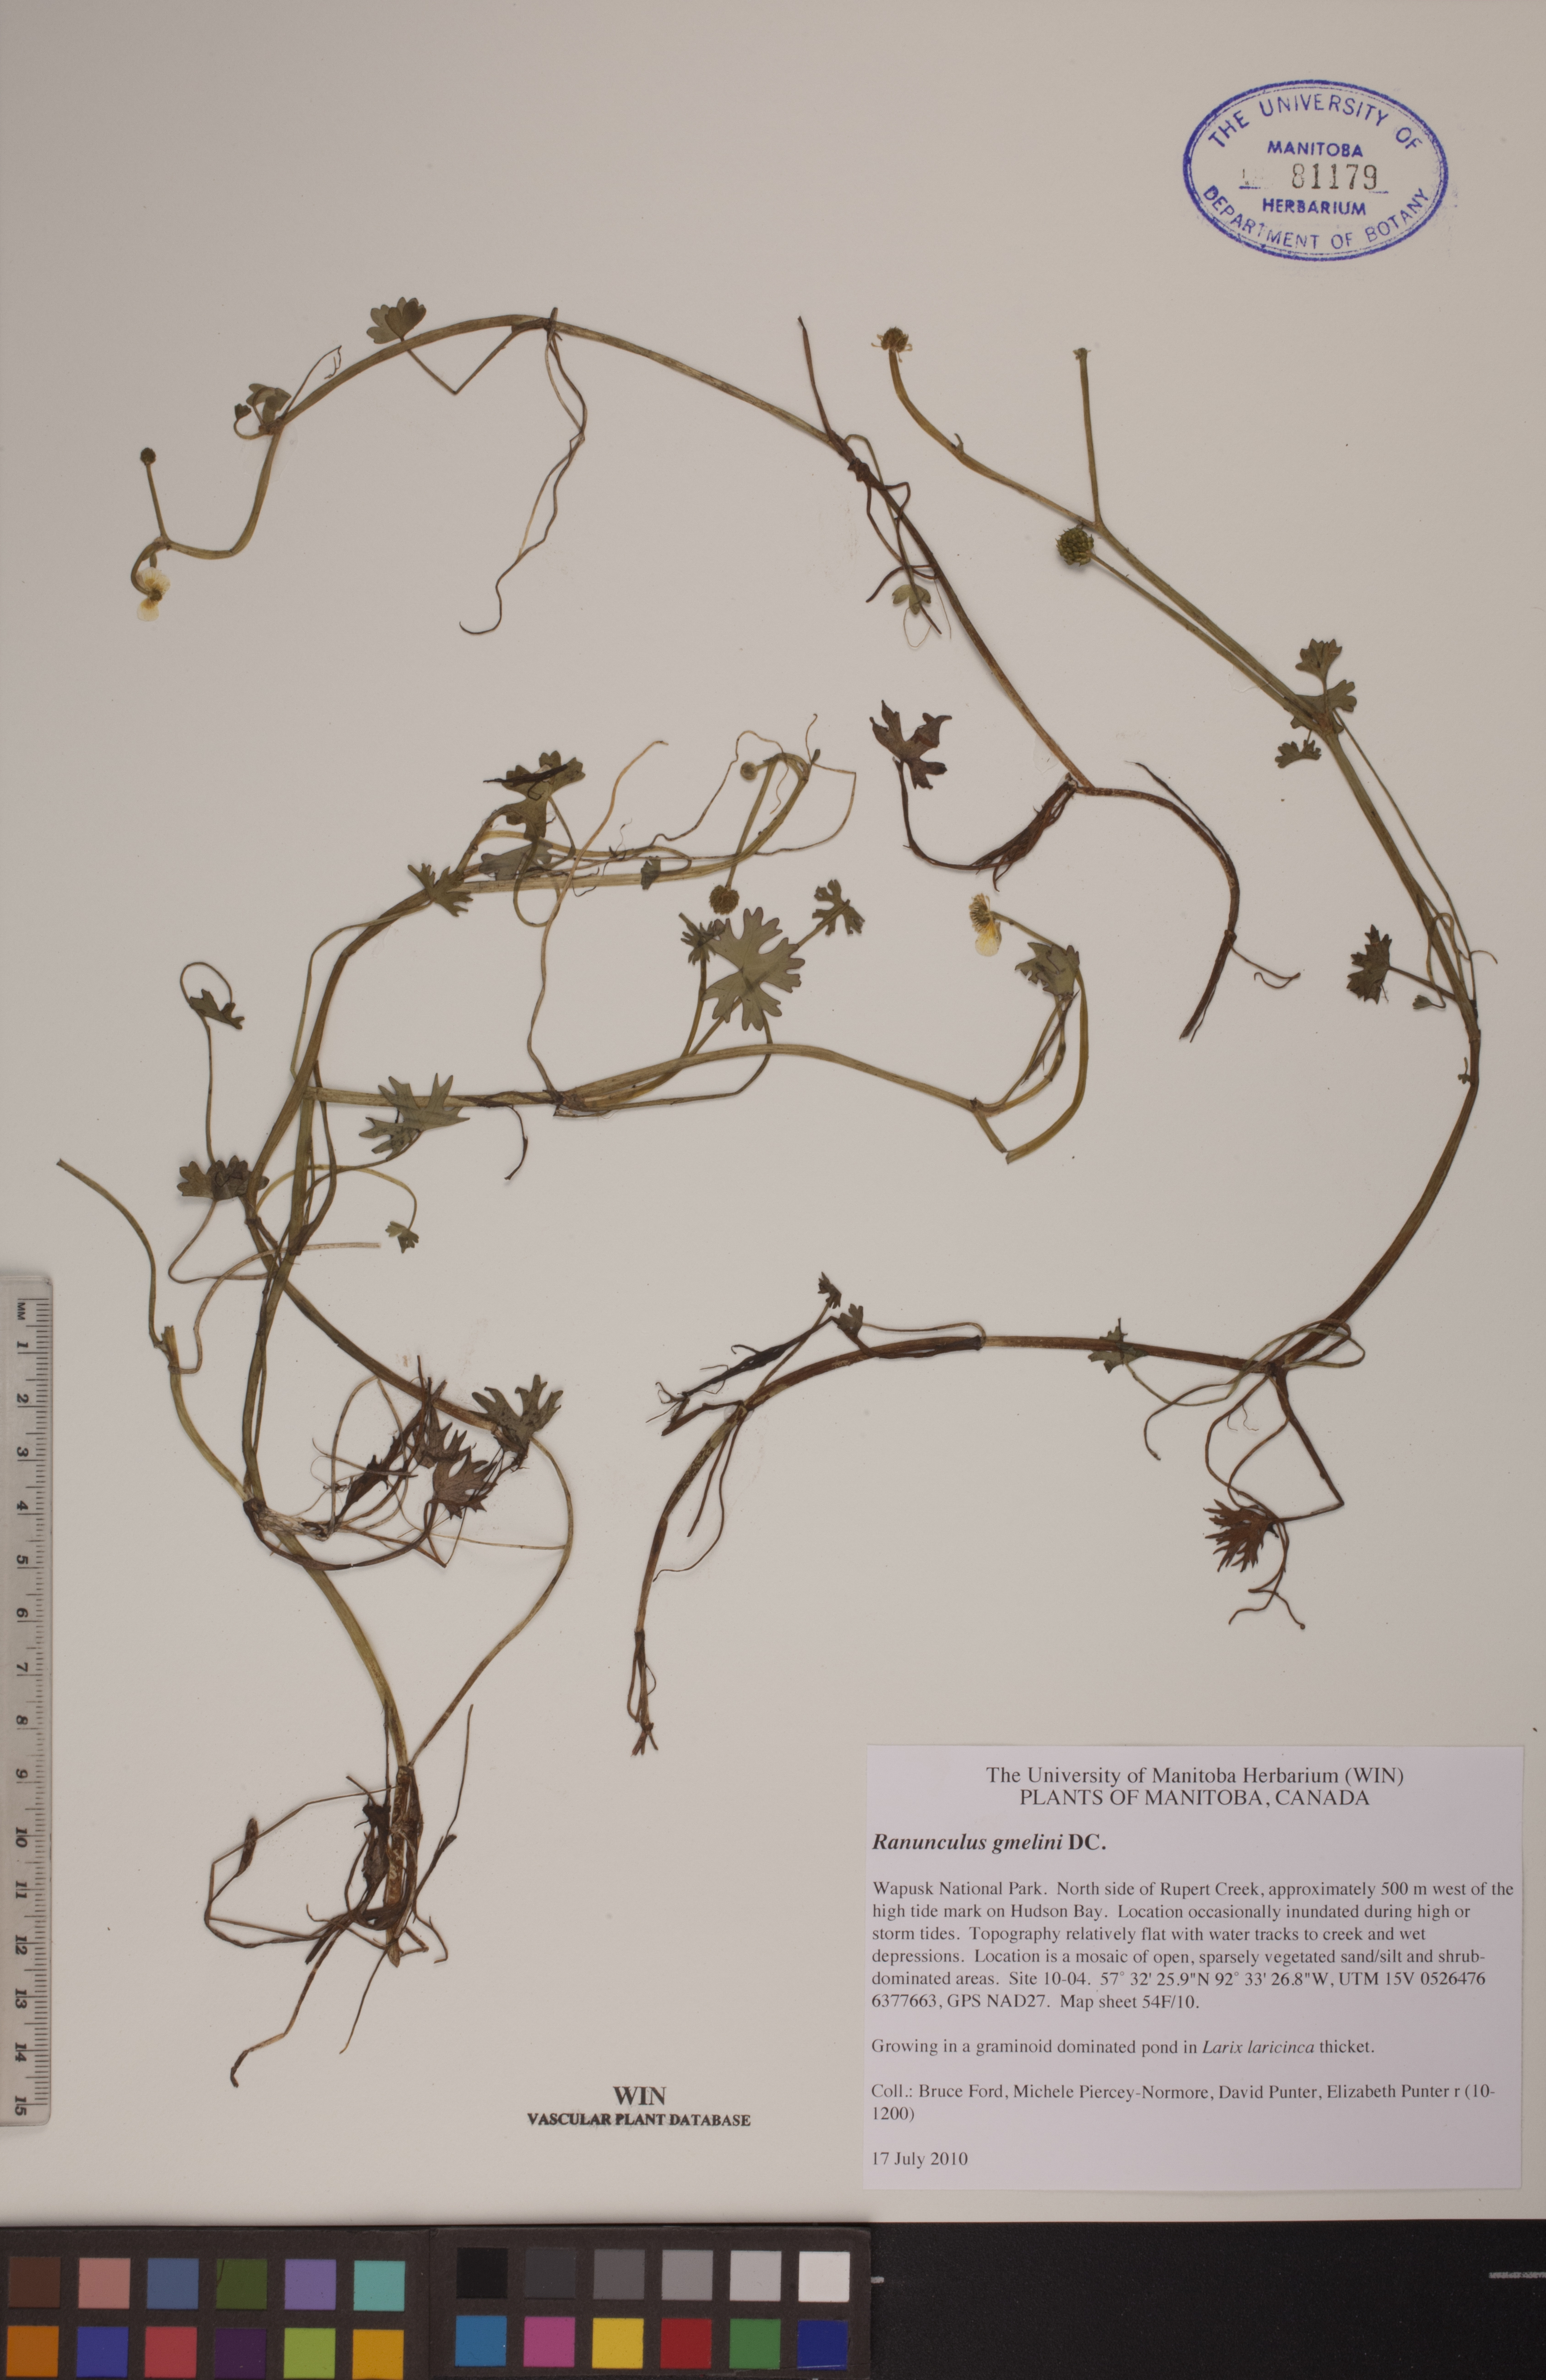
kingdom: Plantae
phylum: Tracheophyta
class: Magnoliopsida
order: Ranunculales
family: Ranunculaceae
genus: Ranunculus
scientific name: Ranunculus gmelinii
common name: Gmelin's buttercup
